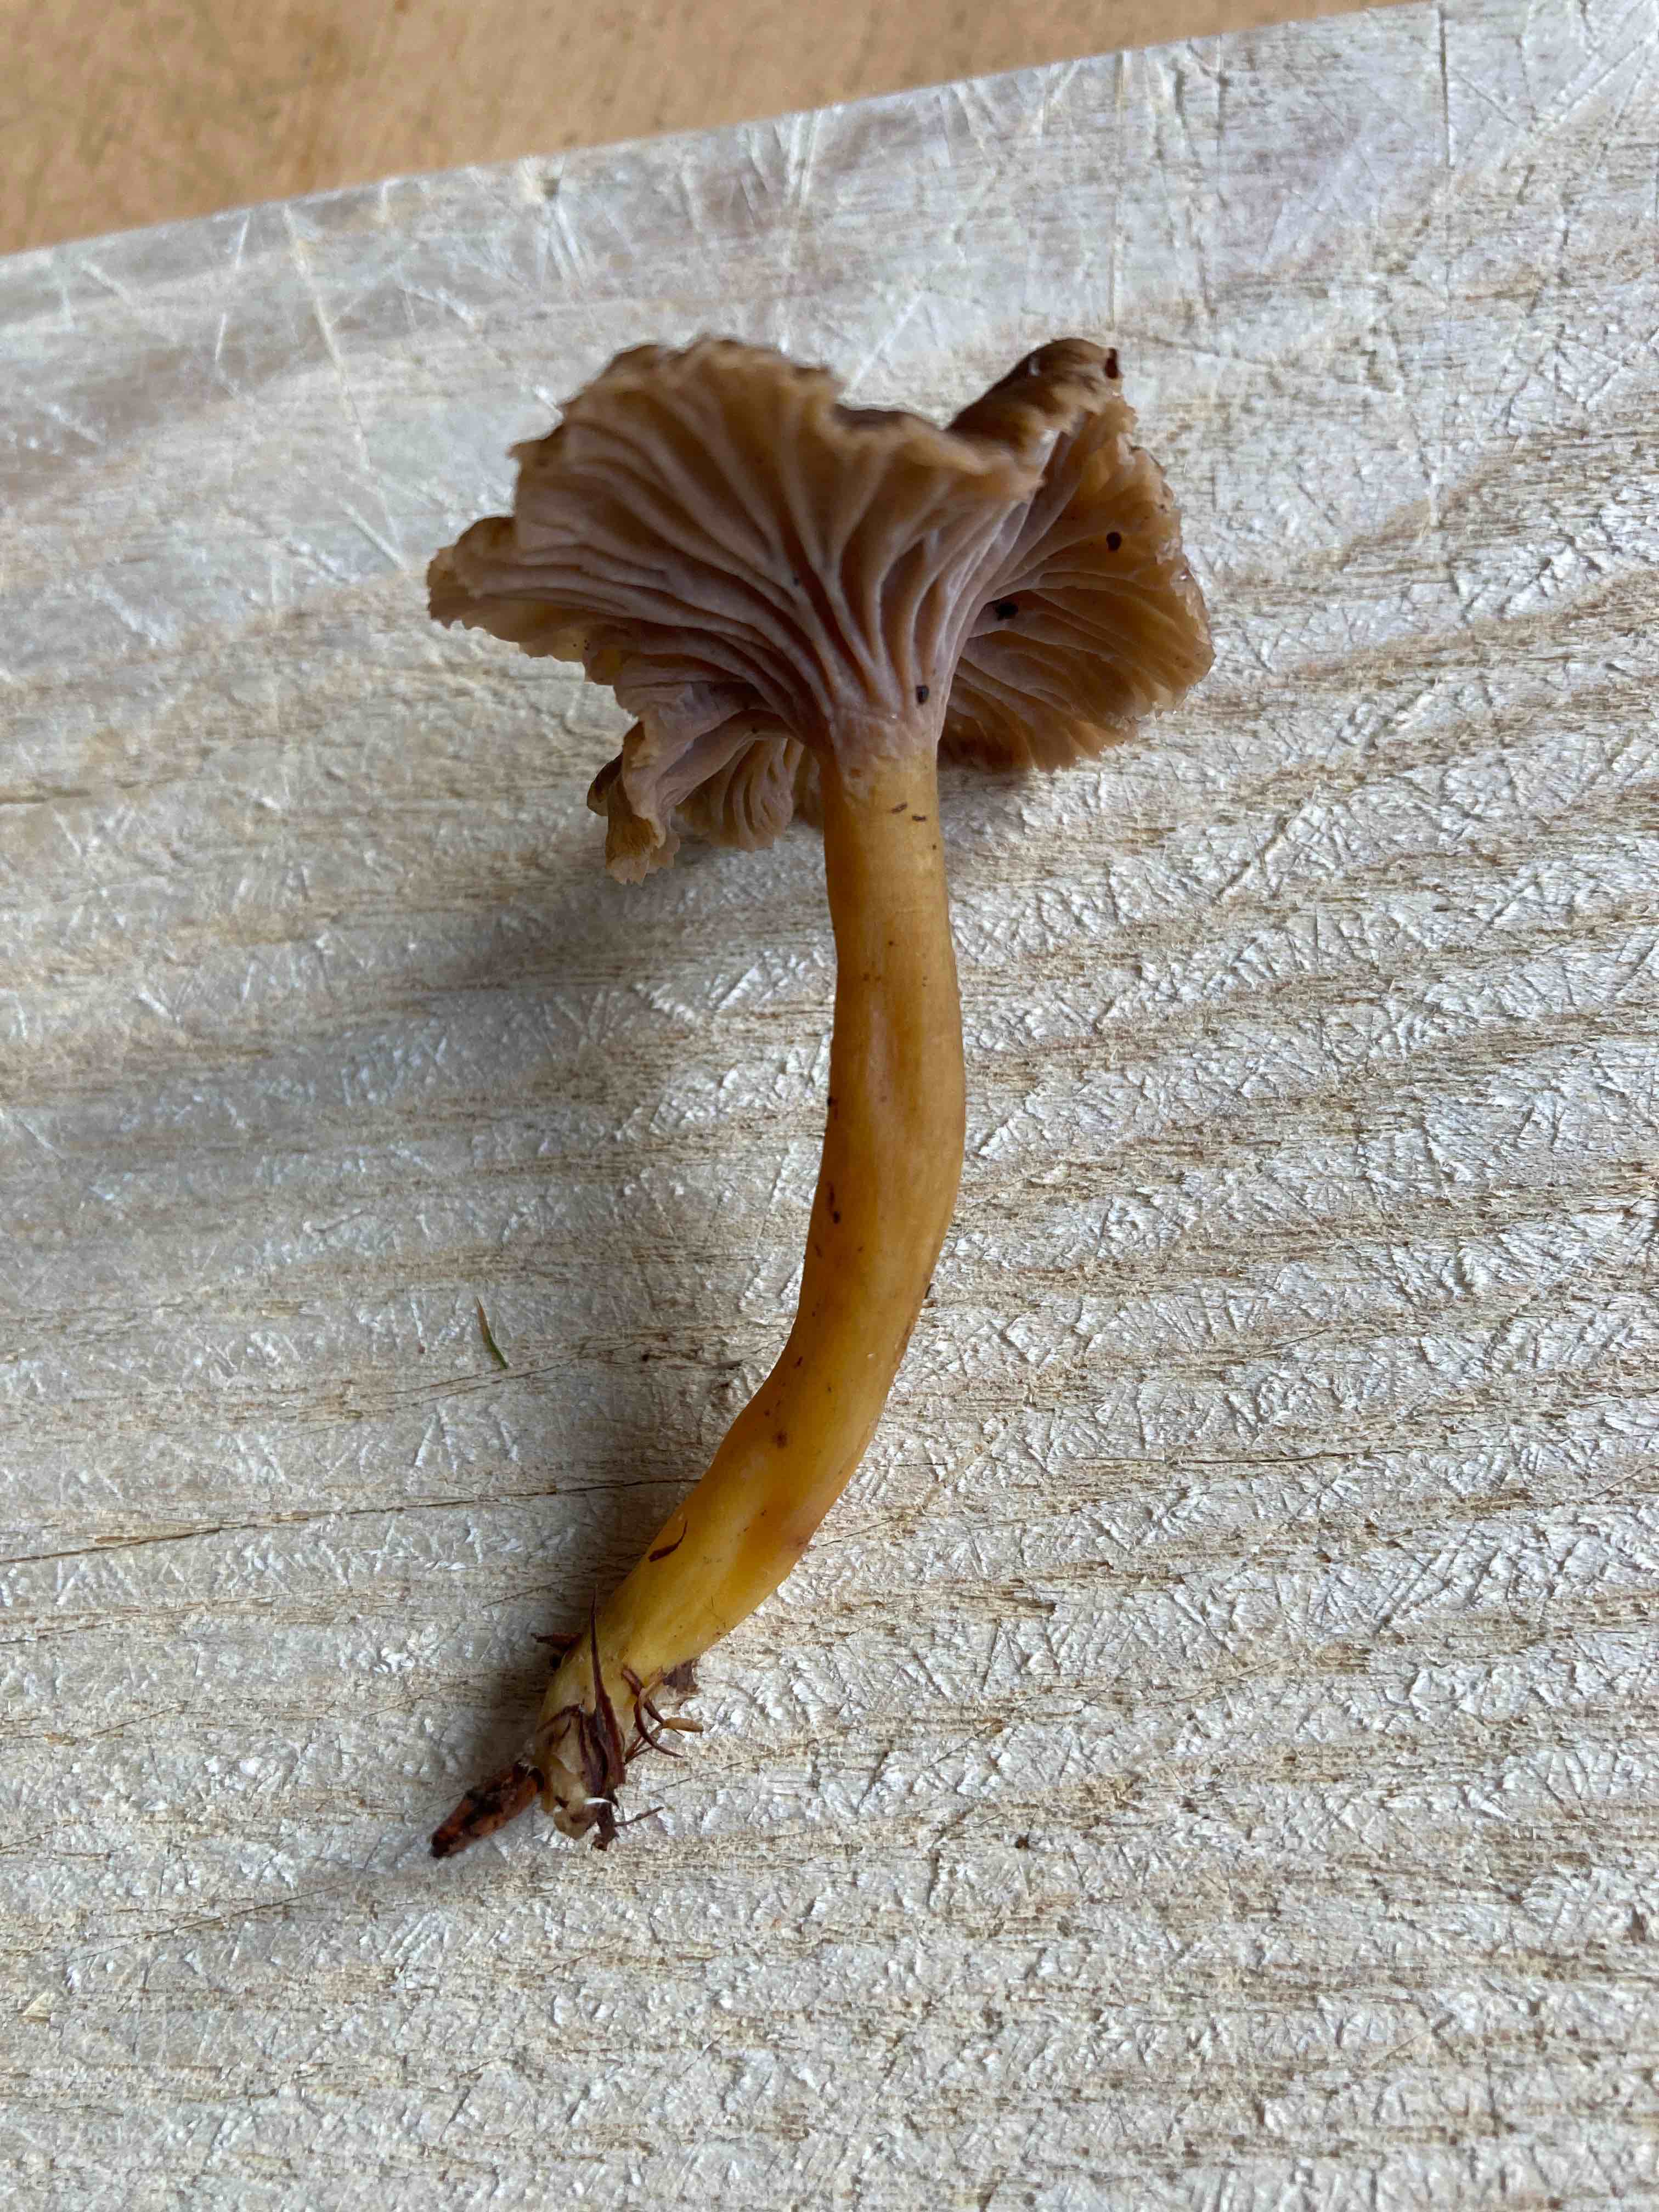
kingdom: Fungi
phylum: Basidiomycota
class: Agaricomycetes
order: Cantharellales
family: Hydnaceae
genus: Craterellus
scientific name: Craterellus tubaeformis
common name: tragt-kantarel
